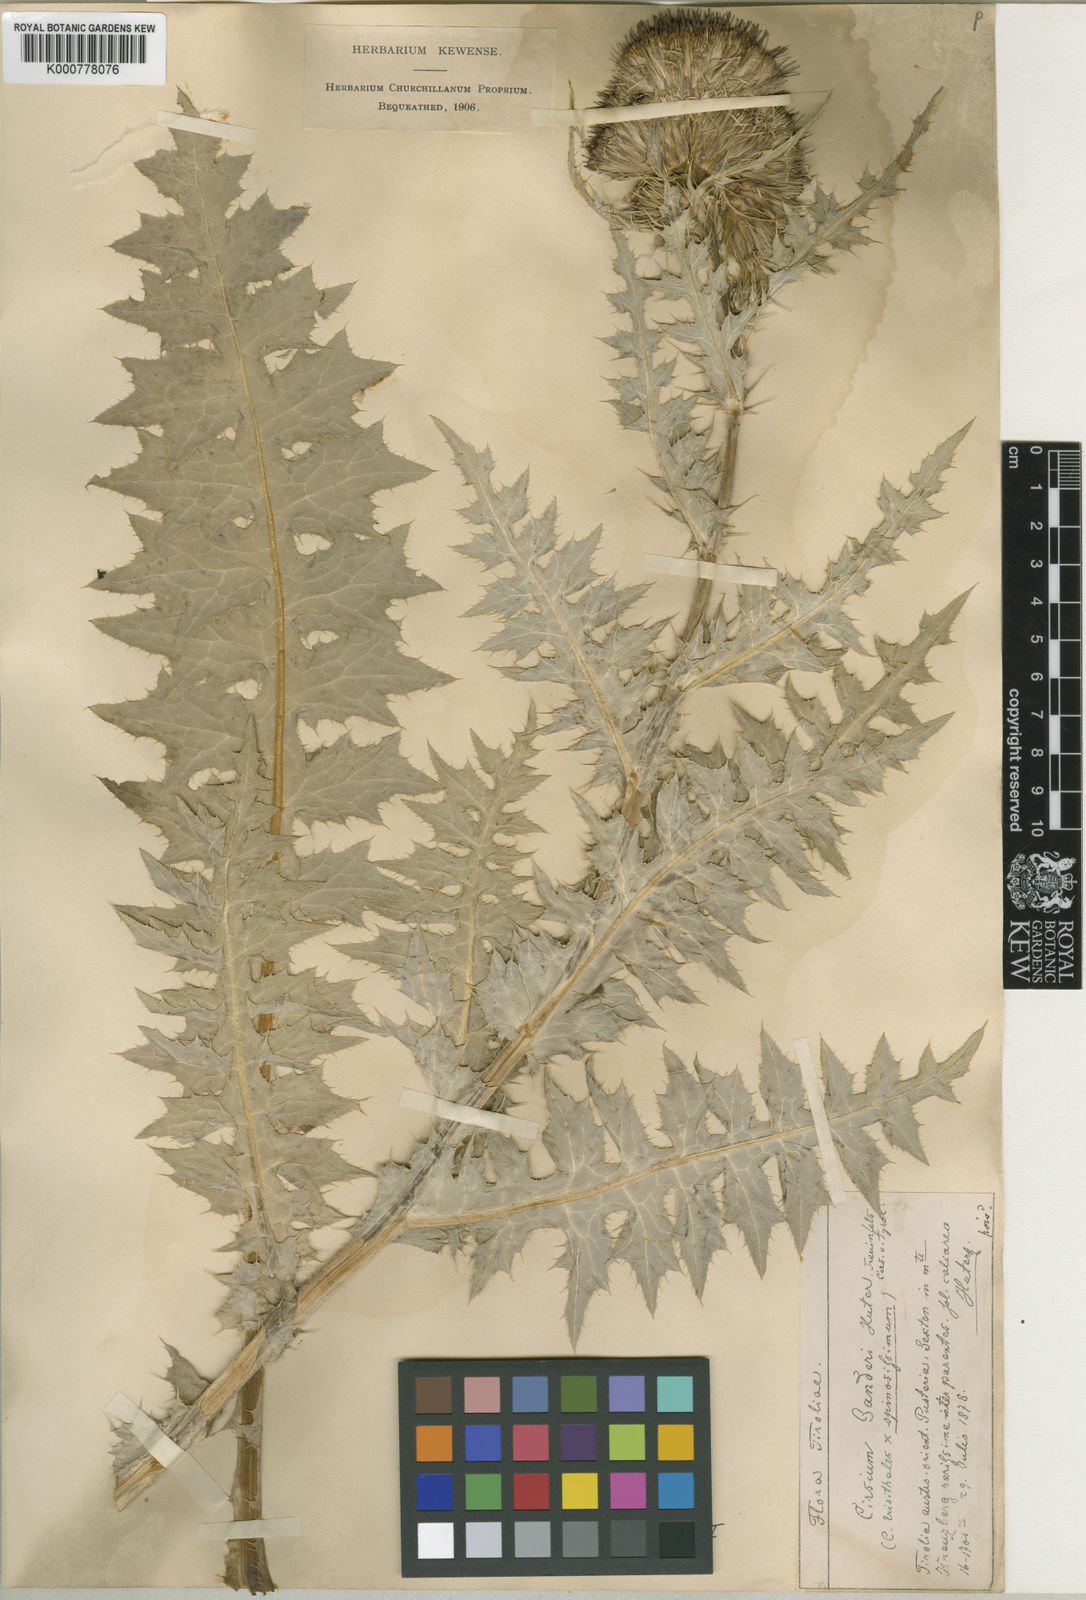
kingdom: Plantae
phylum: Tracheophyta
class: Magnoliopsida
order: Asterales
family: Asteraceae
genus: Cirsium
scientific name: Cirsium erisithales
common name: Yellow thistle
